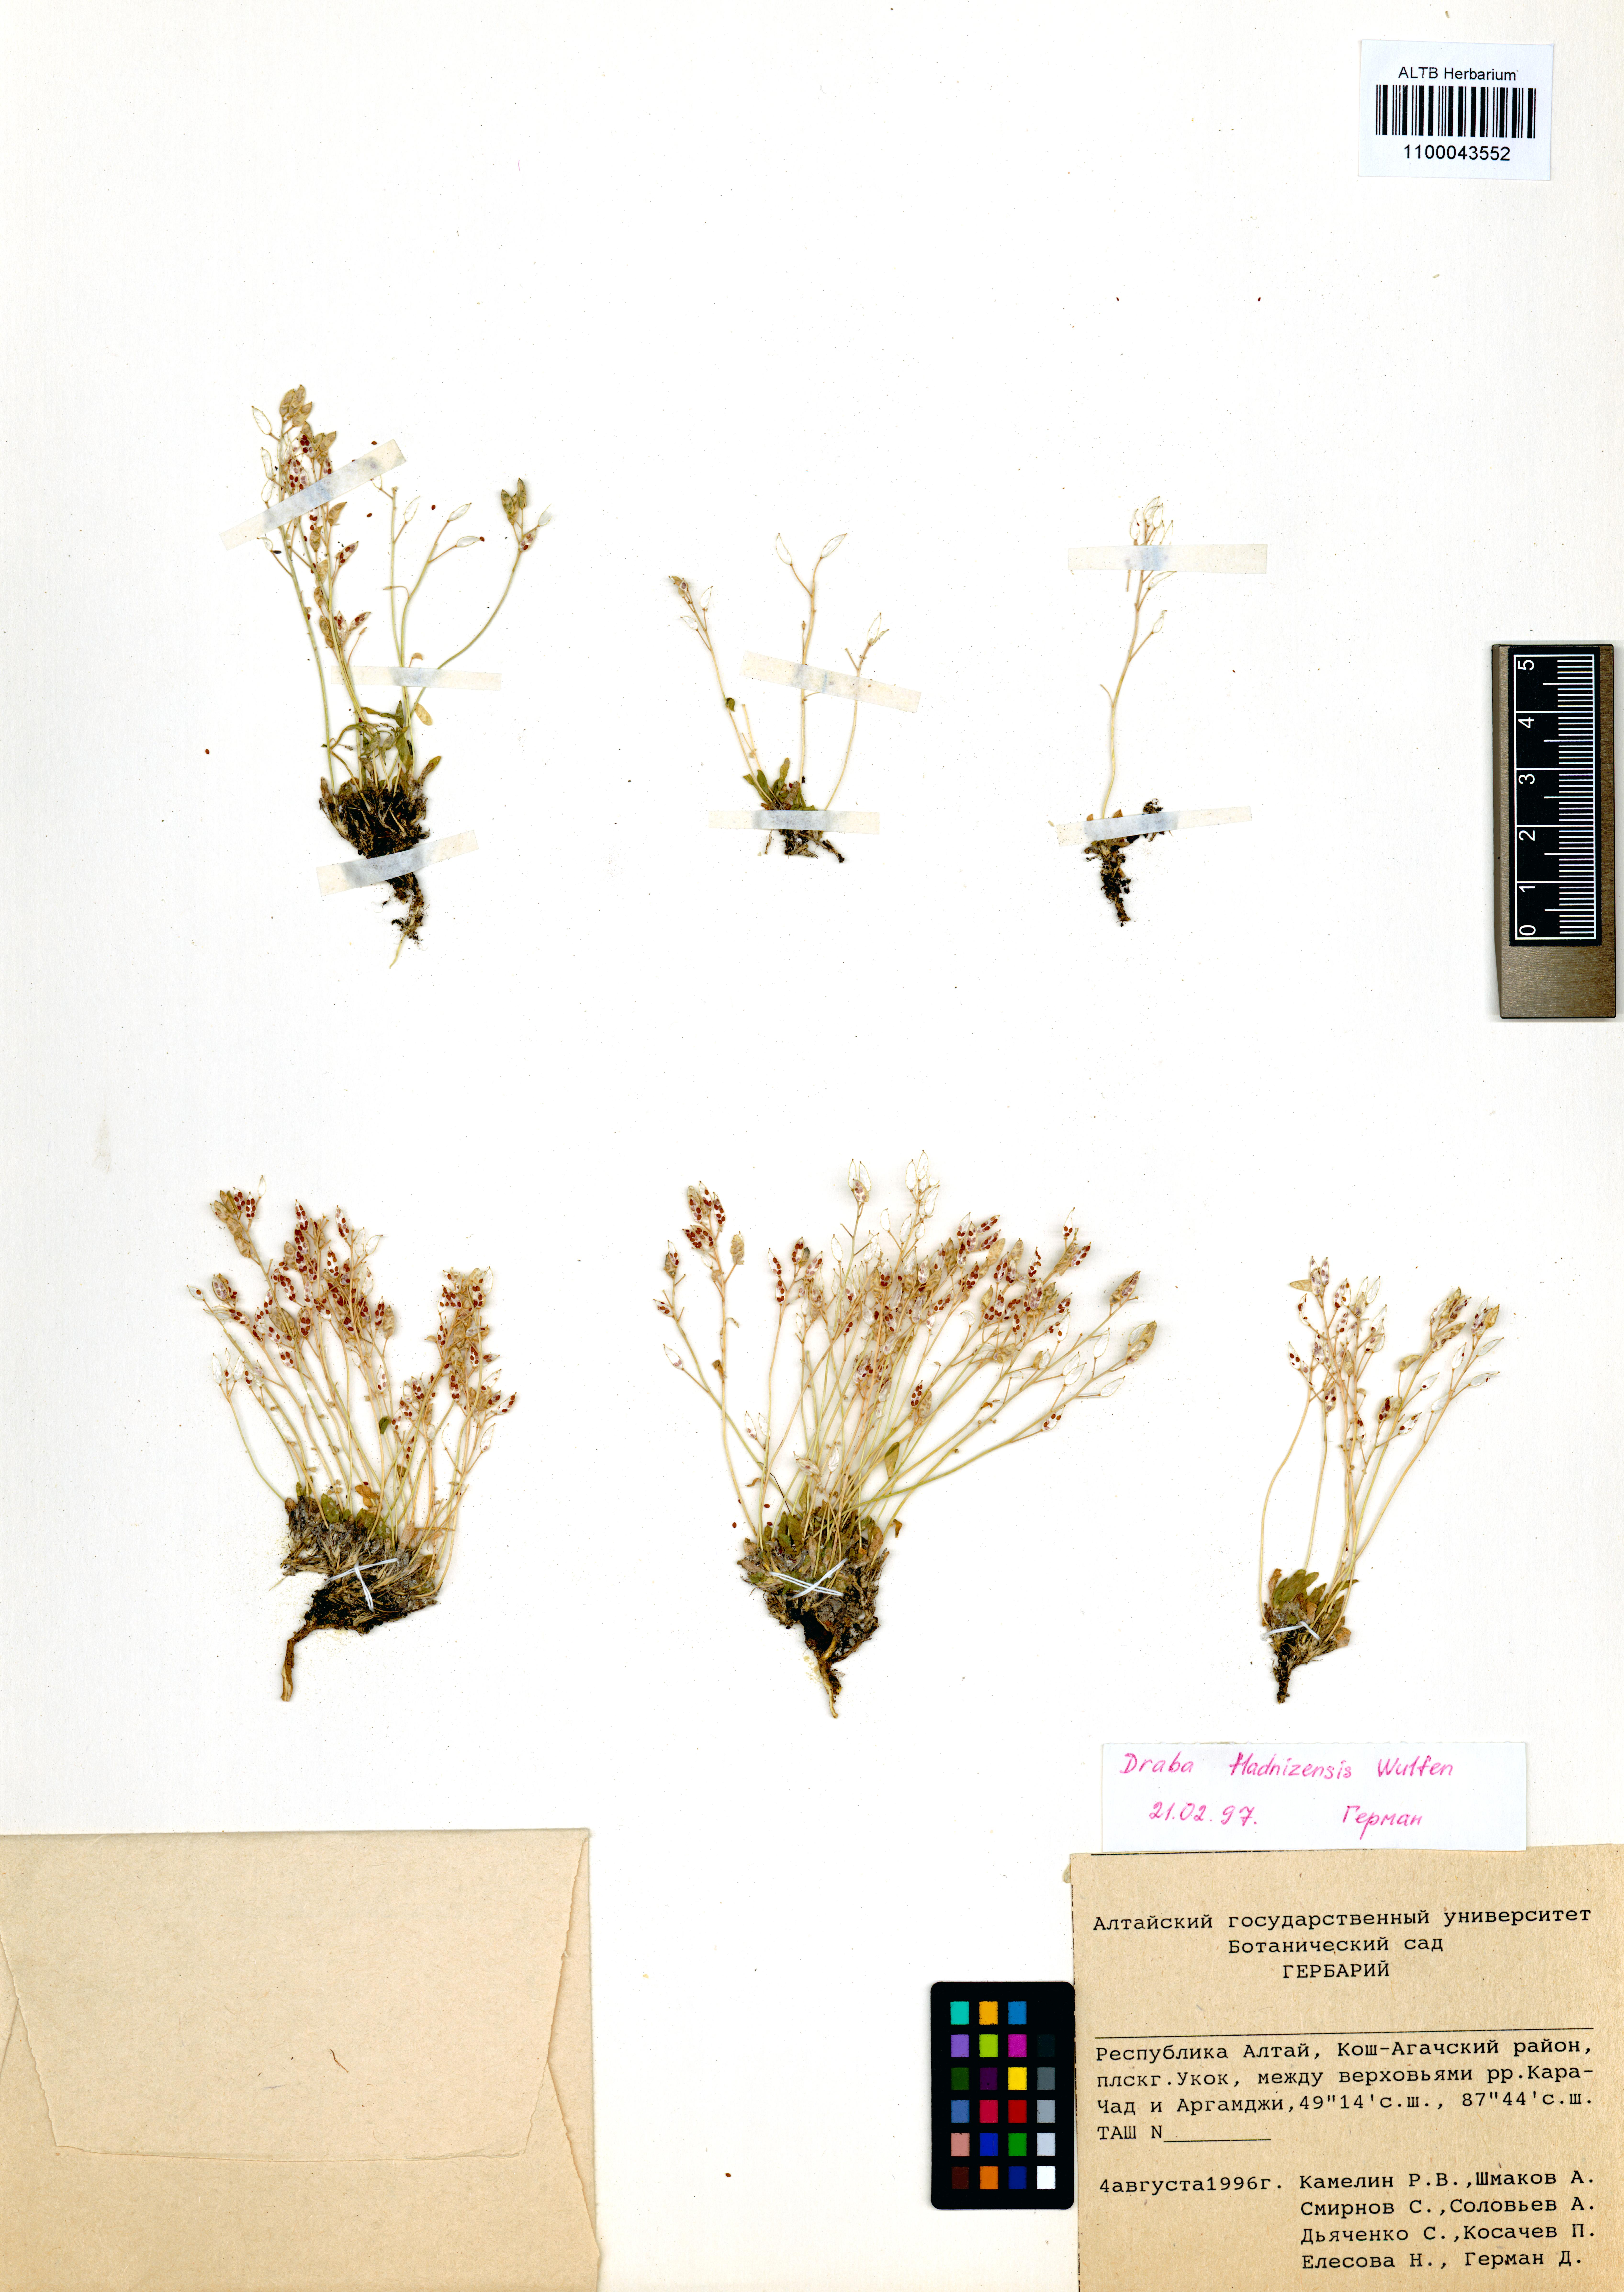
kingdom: Plantae
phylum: Tracheophyta
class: Magnoliopsida
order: Brassicales
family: Brassicaceae
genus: Draba
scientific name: Draba fladnizensis
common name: Austrian draba
